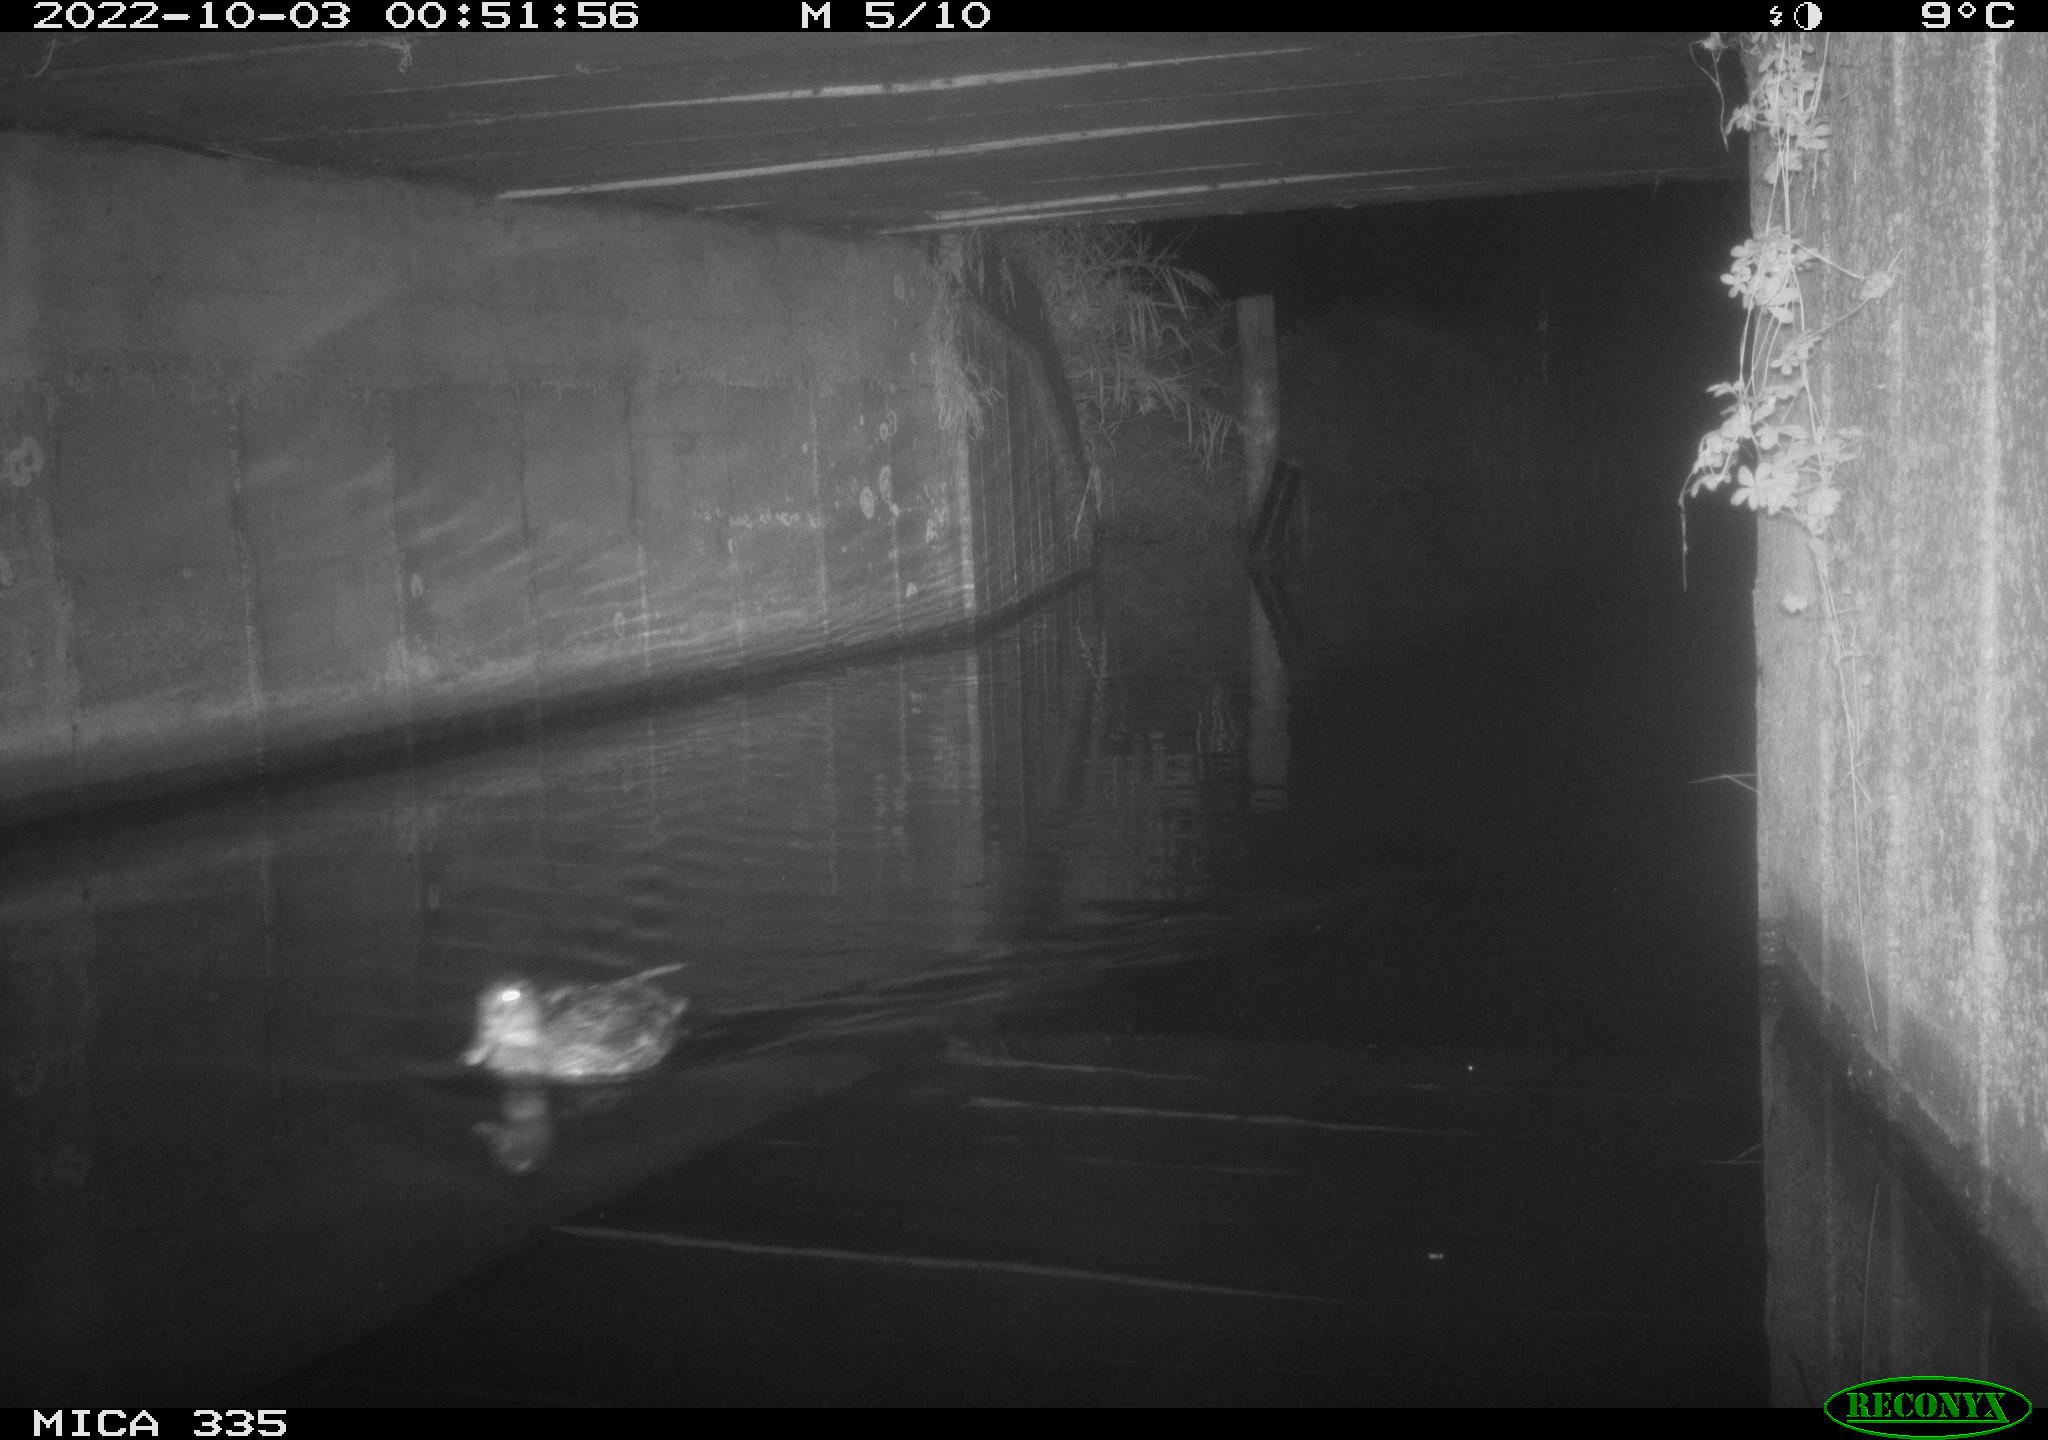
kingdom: Animalia
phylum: Chordata
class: Aves
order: Anseriformes
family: Anatidae
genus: Anas
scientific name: Anas platyrhynchos
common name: Mallard
